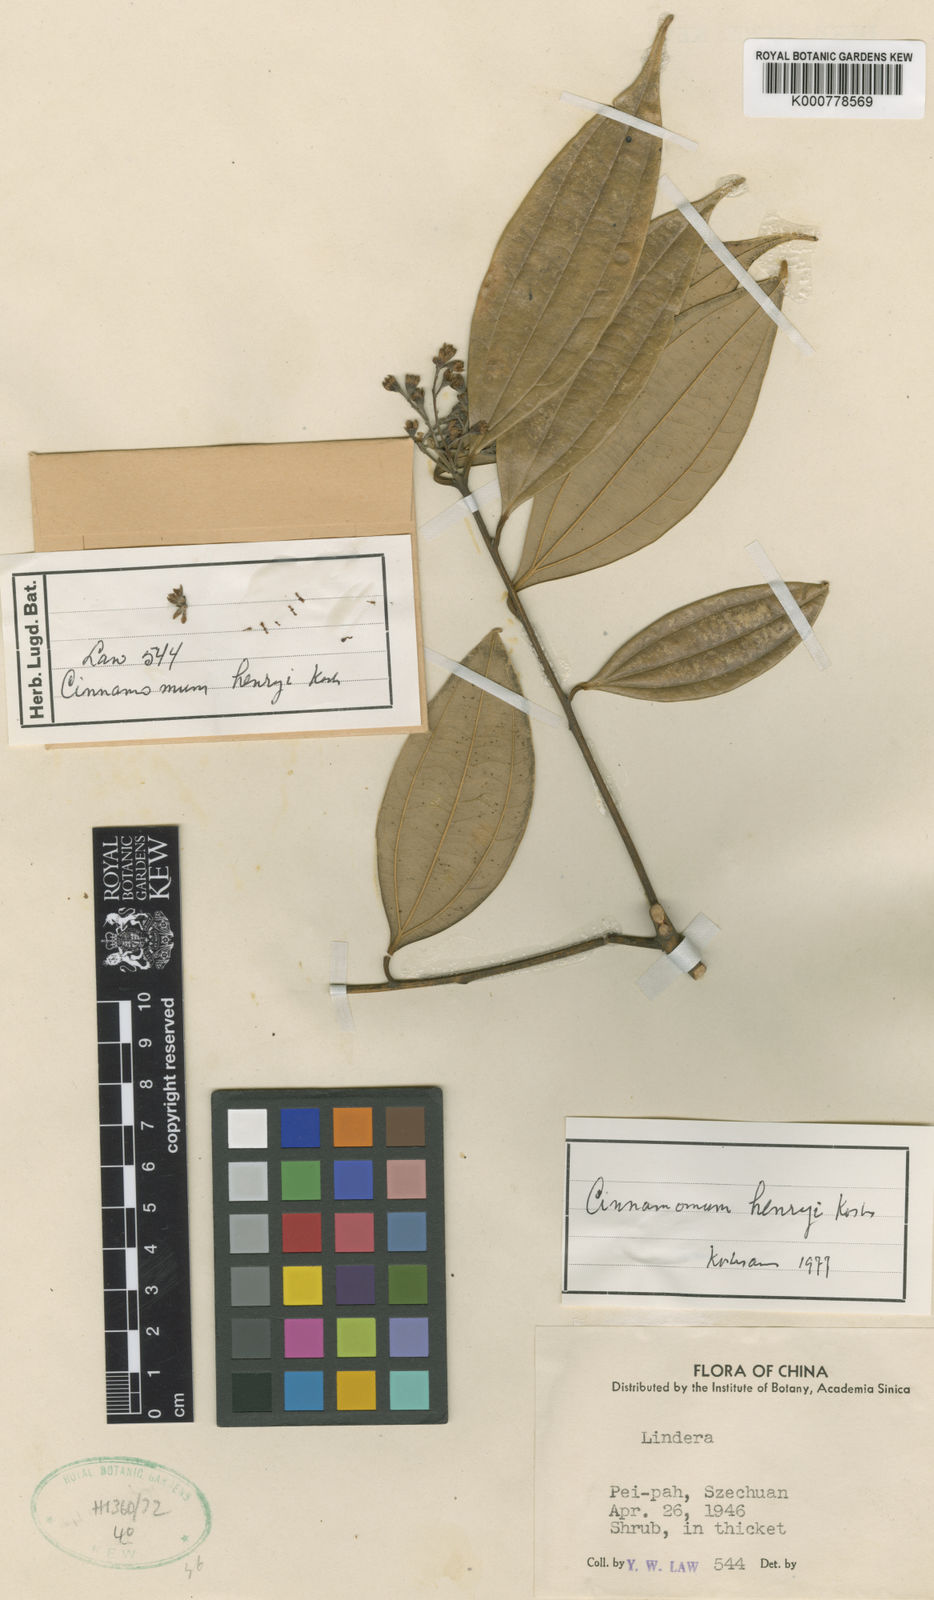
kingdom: Plantae
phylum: Tracheophyta
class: Magnoliopsida
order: Laurales
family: Lauraceae
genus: Cinnamomum
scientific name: Cinnamomum
